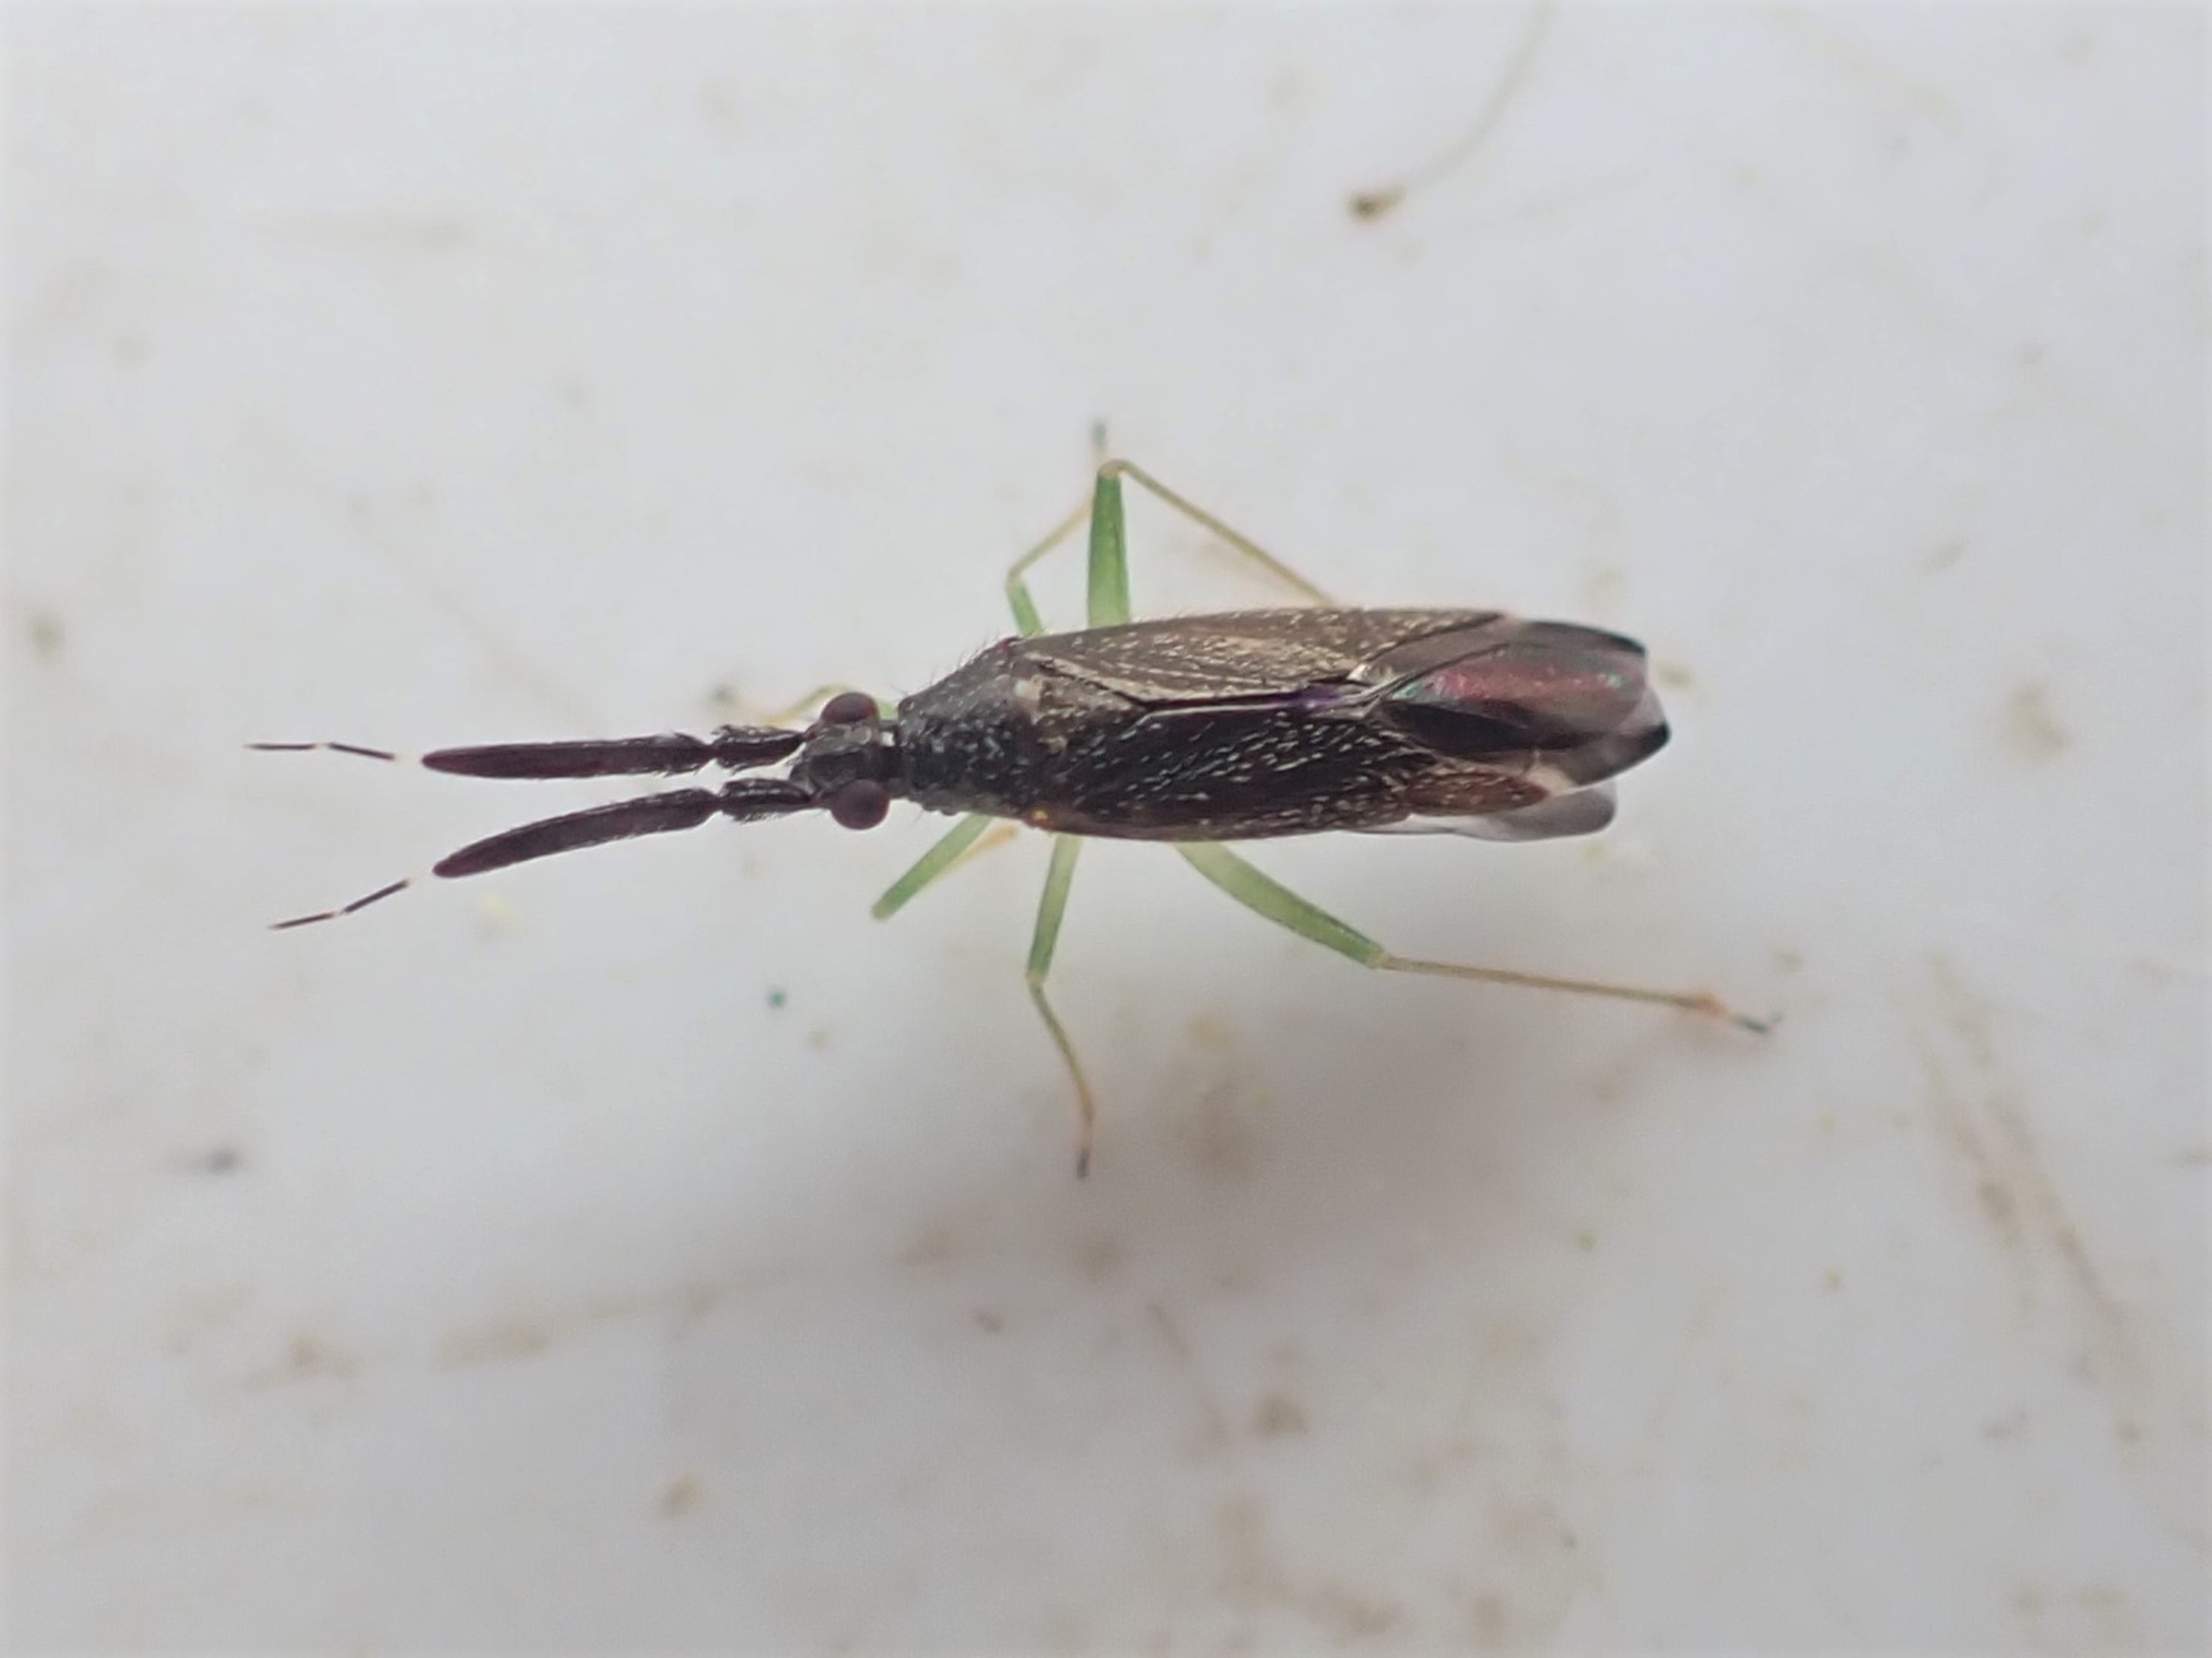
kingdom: Animalia
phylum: Arthropoda
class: Insecta
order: Hemiptera
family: Miridae
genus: Heterotoma
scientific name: Heterotoma planicornis
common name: Køllehornet blomstertæge
